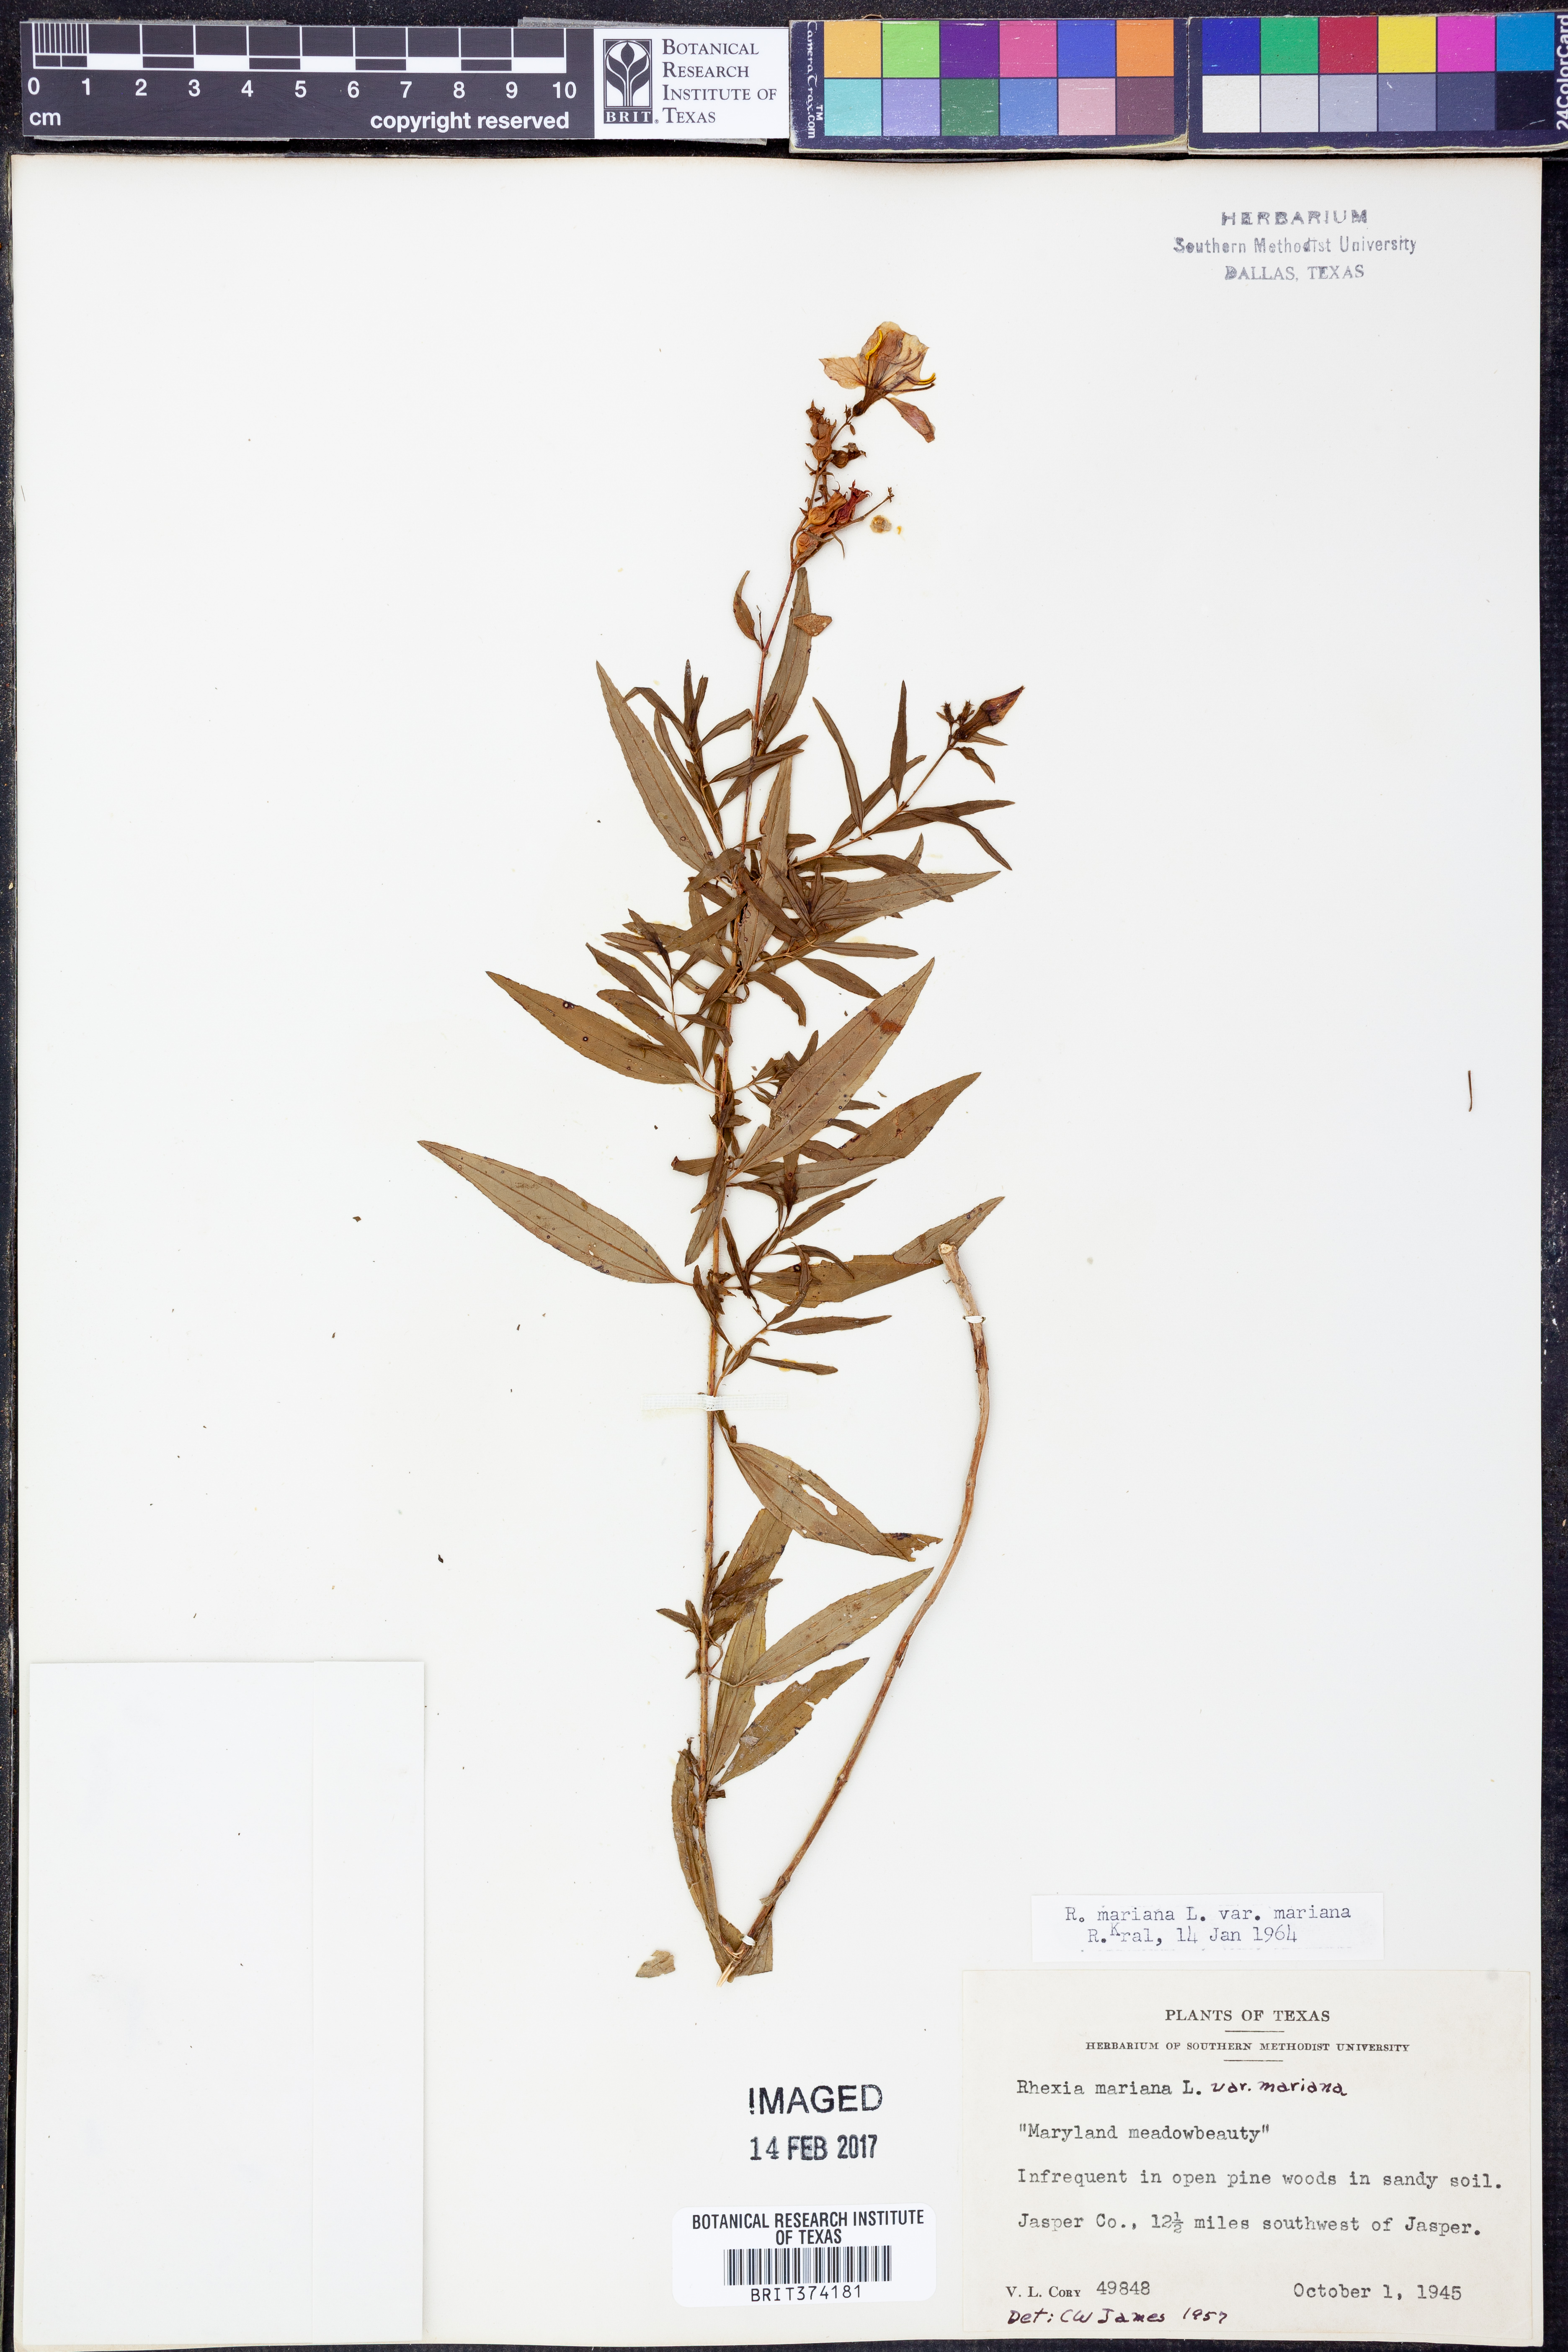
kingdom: Plantae
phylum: Tracheophyta
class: Magnoliopsida
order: Myrtales
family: Melastomataceae
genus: Rhexia
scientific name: Rhexia mariana
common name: Dull meadow-pitcher
